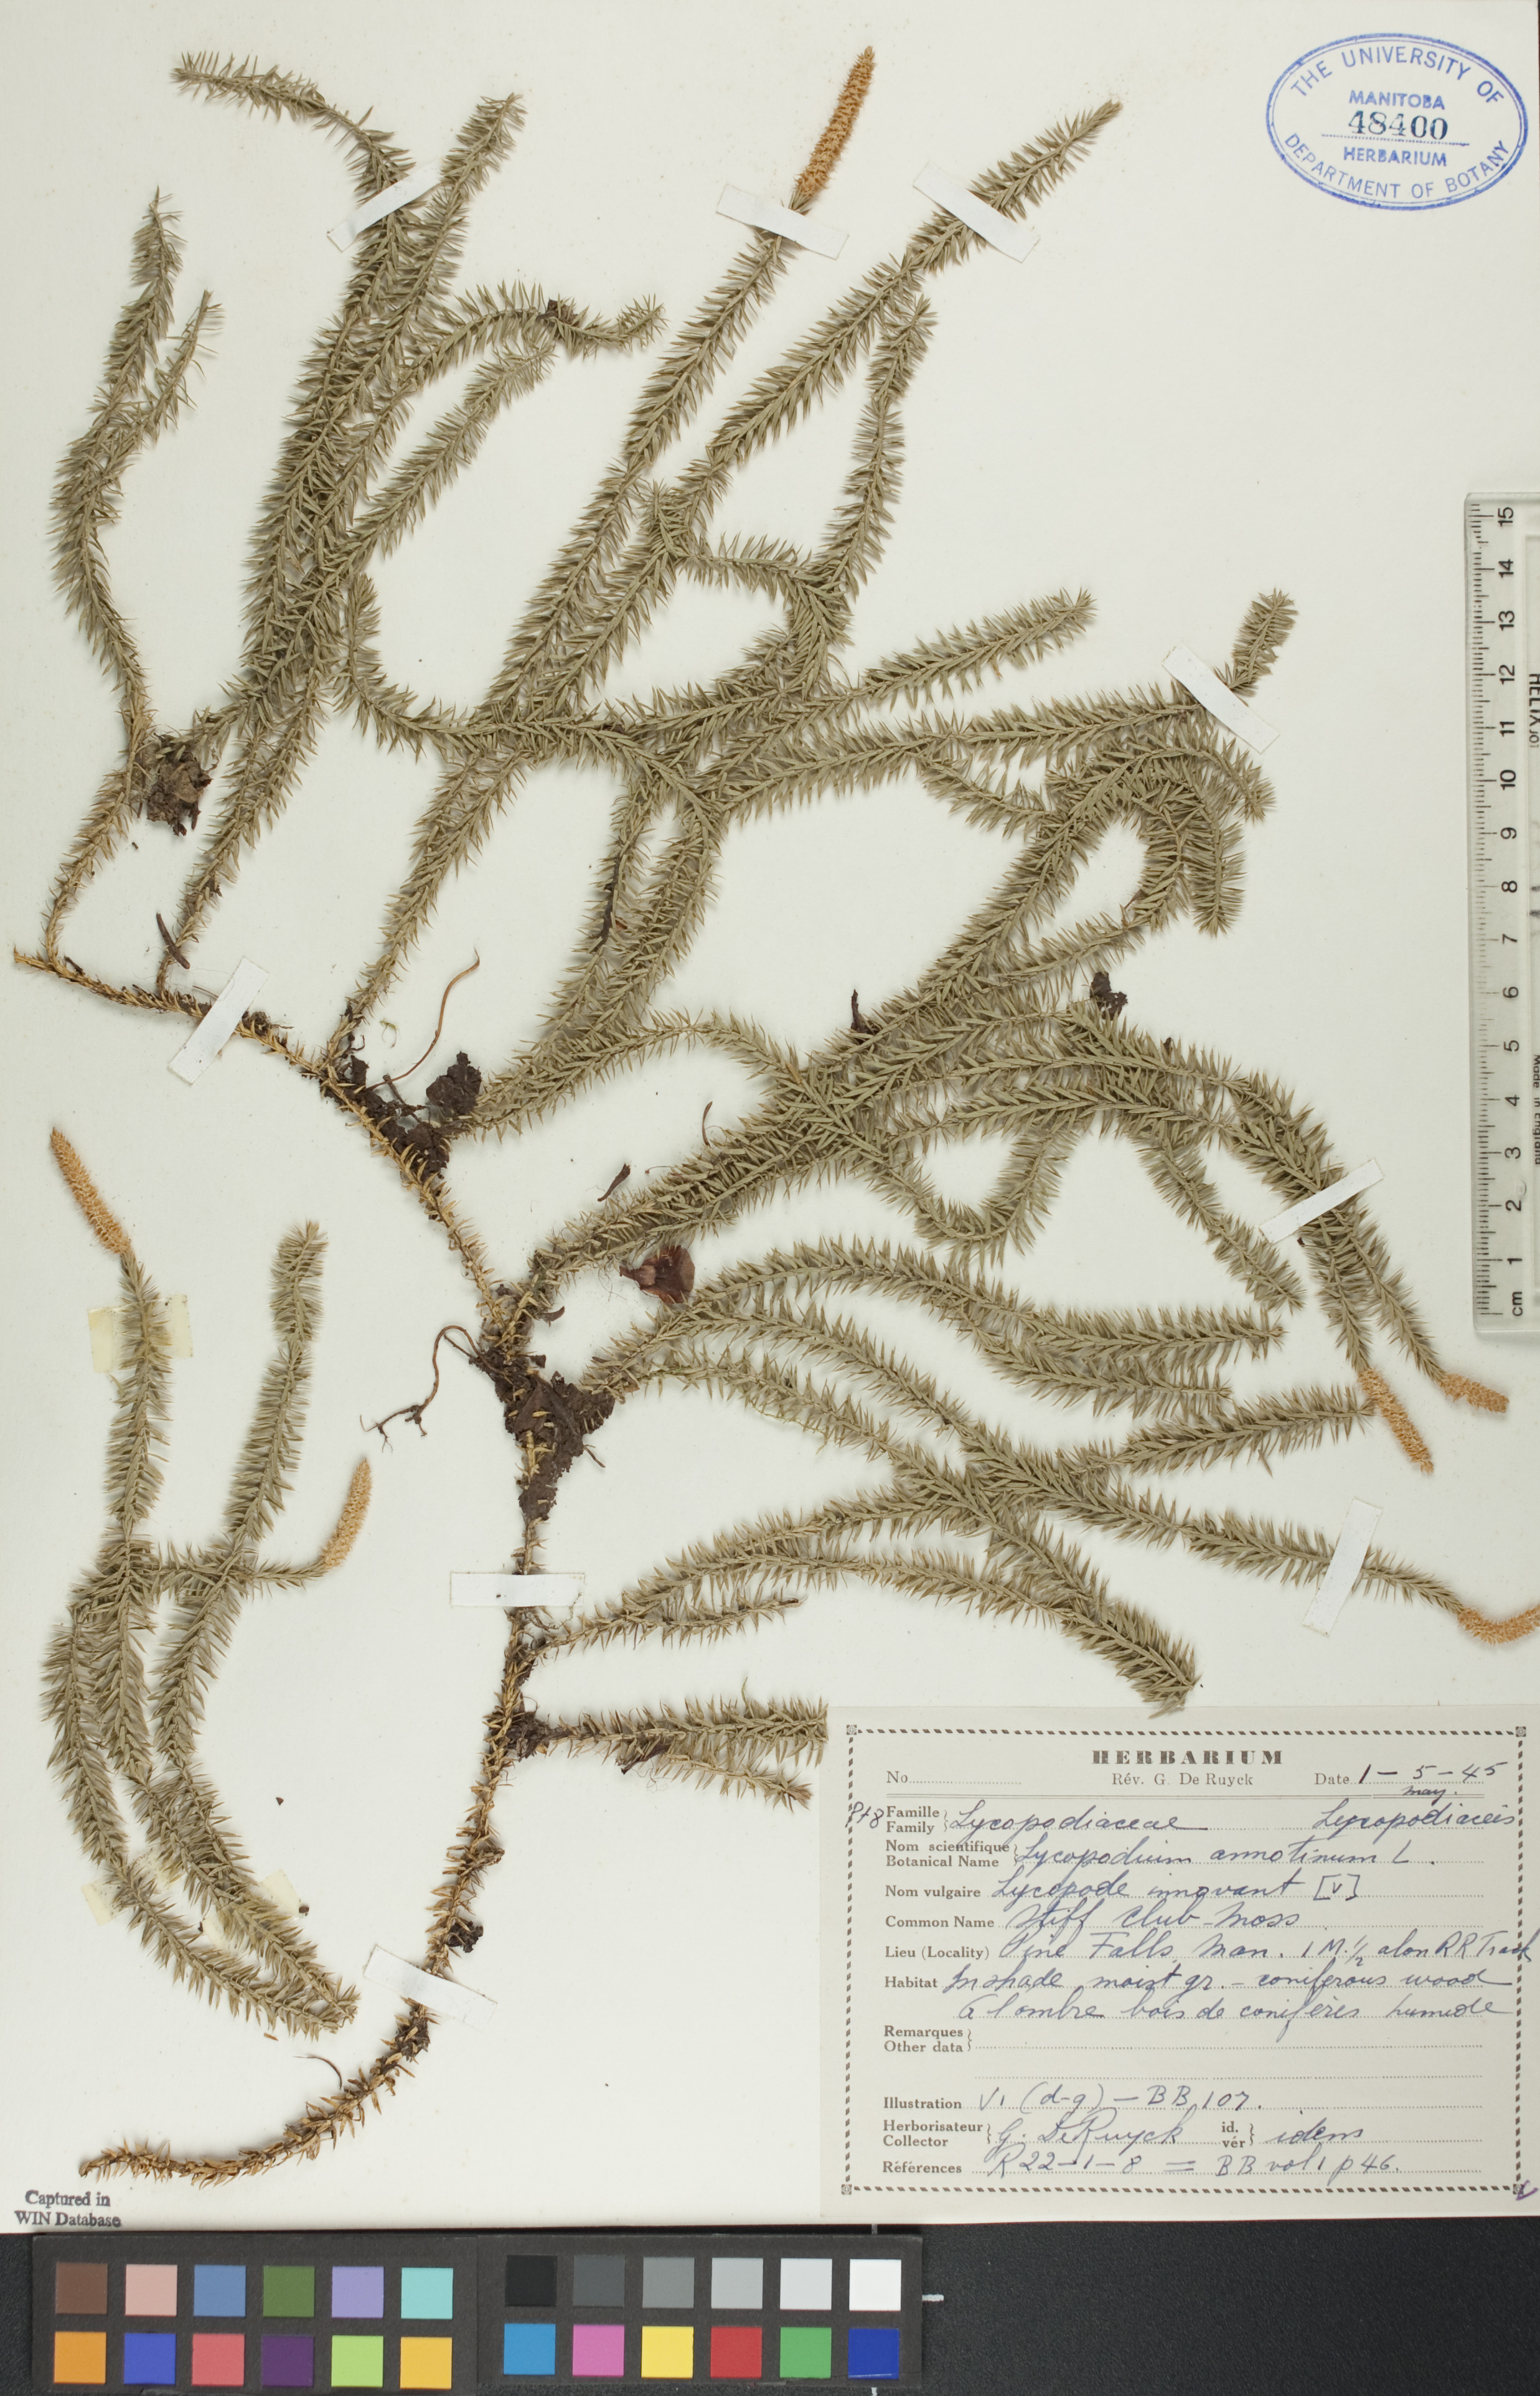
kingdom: Plantae
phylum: Tracheophyta
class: Lycopodiopsida
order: Lycopodiales
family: Lycopodiaceae
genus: Spinulum
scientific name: Spinulum annotinum
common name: Interrupted club-moss
